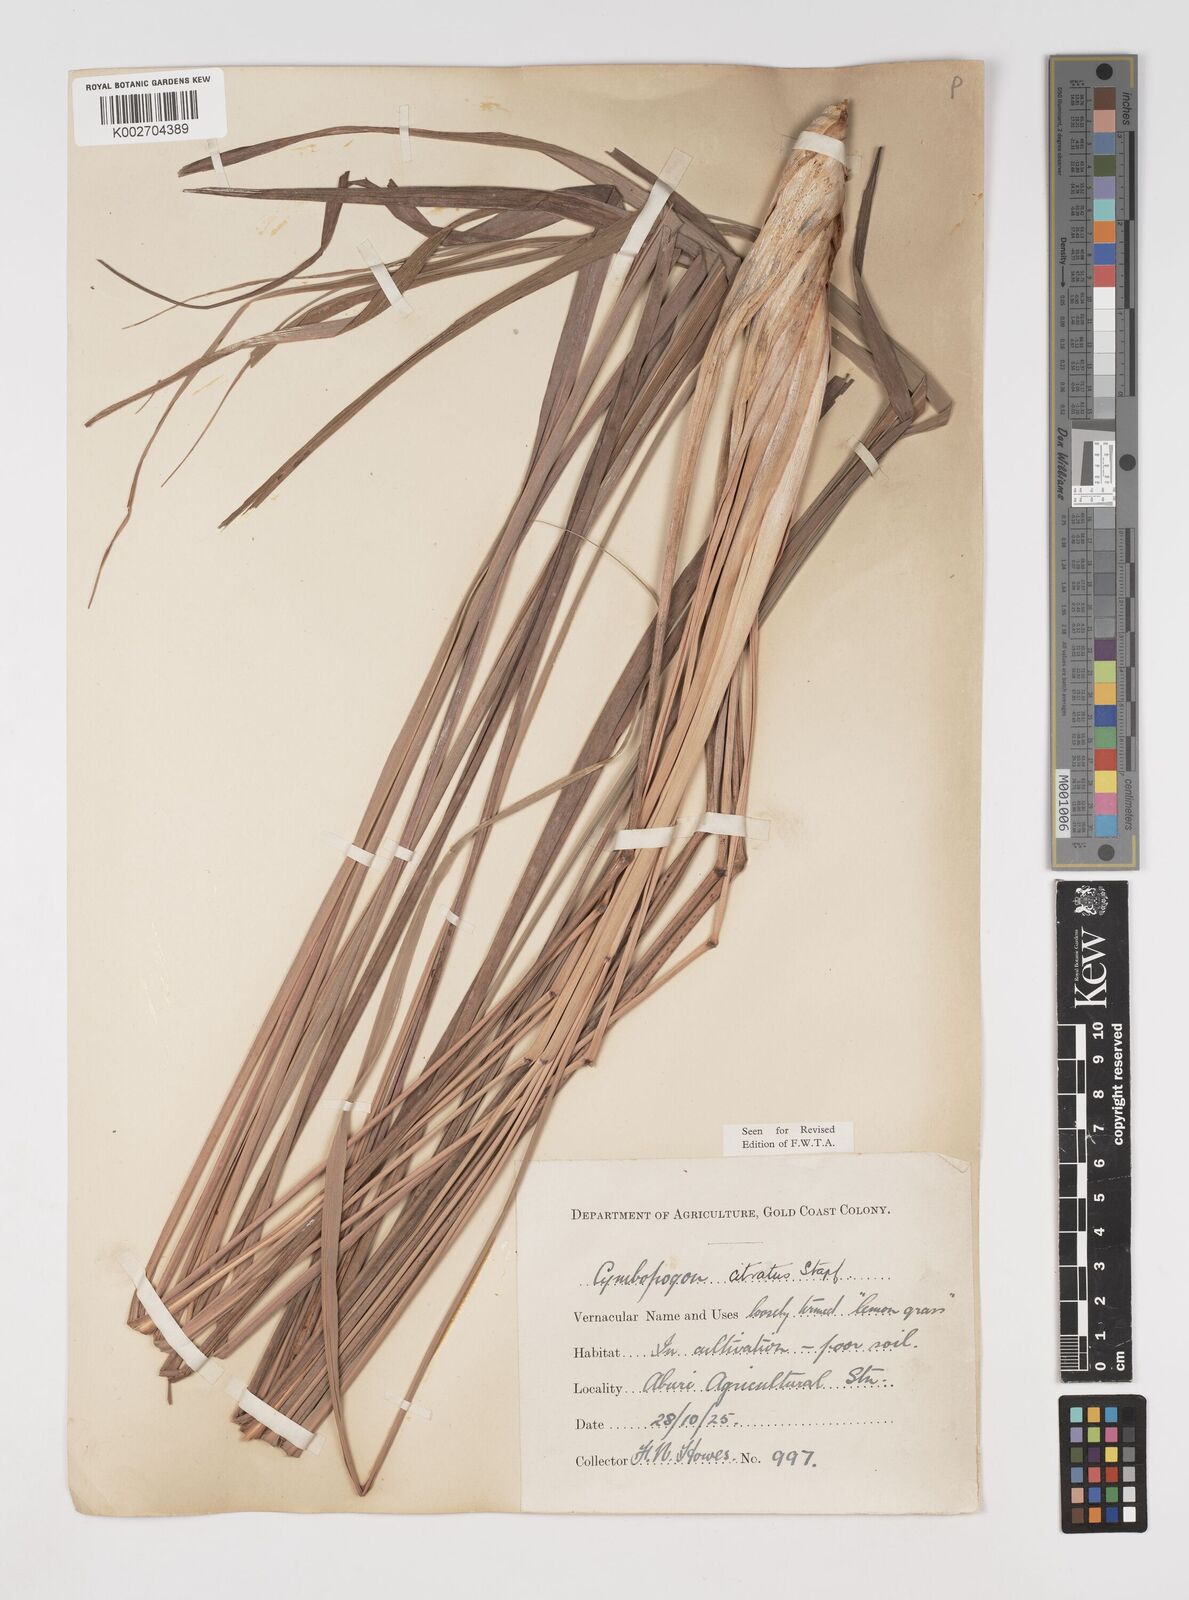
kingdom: Plantae
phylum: Tracheophyta
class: Liliopsida
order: Poales
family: Poaceae
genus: Cymbopogon
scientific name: Cymbopogon citratus
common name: Lemon grass
